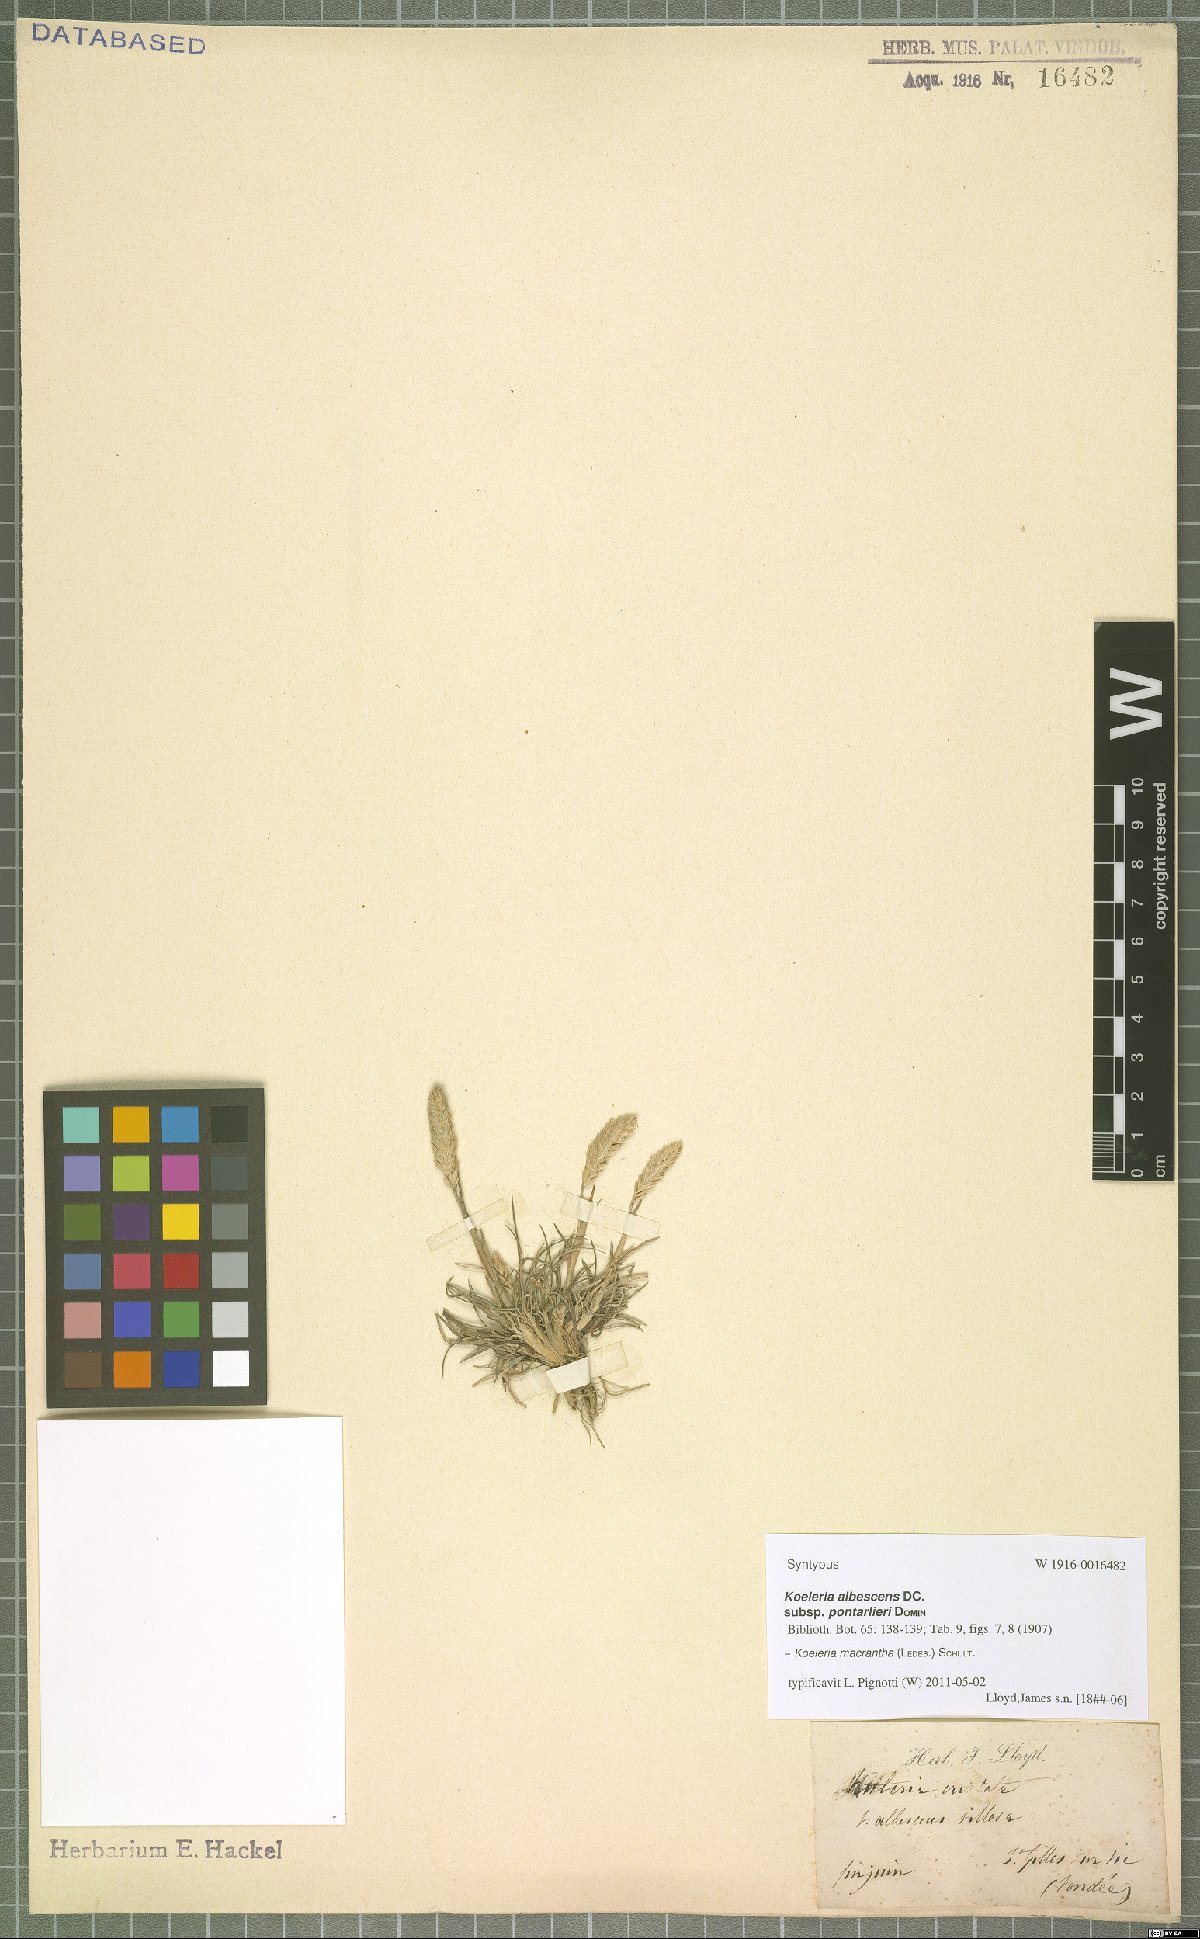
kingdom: Plantae
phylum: Tracheophyta
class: Liliopsida
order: Poales
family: Poaceae
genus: Koeleria
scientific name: Koeleria macrantha
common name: Crested hair-grass
